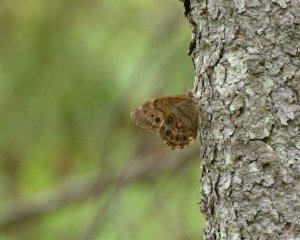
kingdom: Animalia
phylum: Arthropoda
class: Insecta
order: Lepidoptera
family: Nymphalidae
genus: Lethe
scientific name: Lethe anthedon
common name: Northern Pearly-Eye
